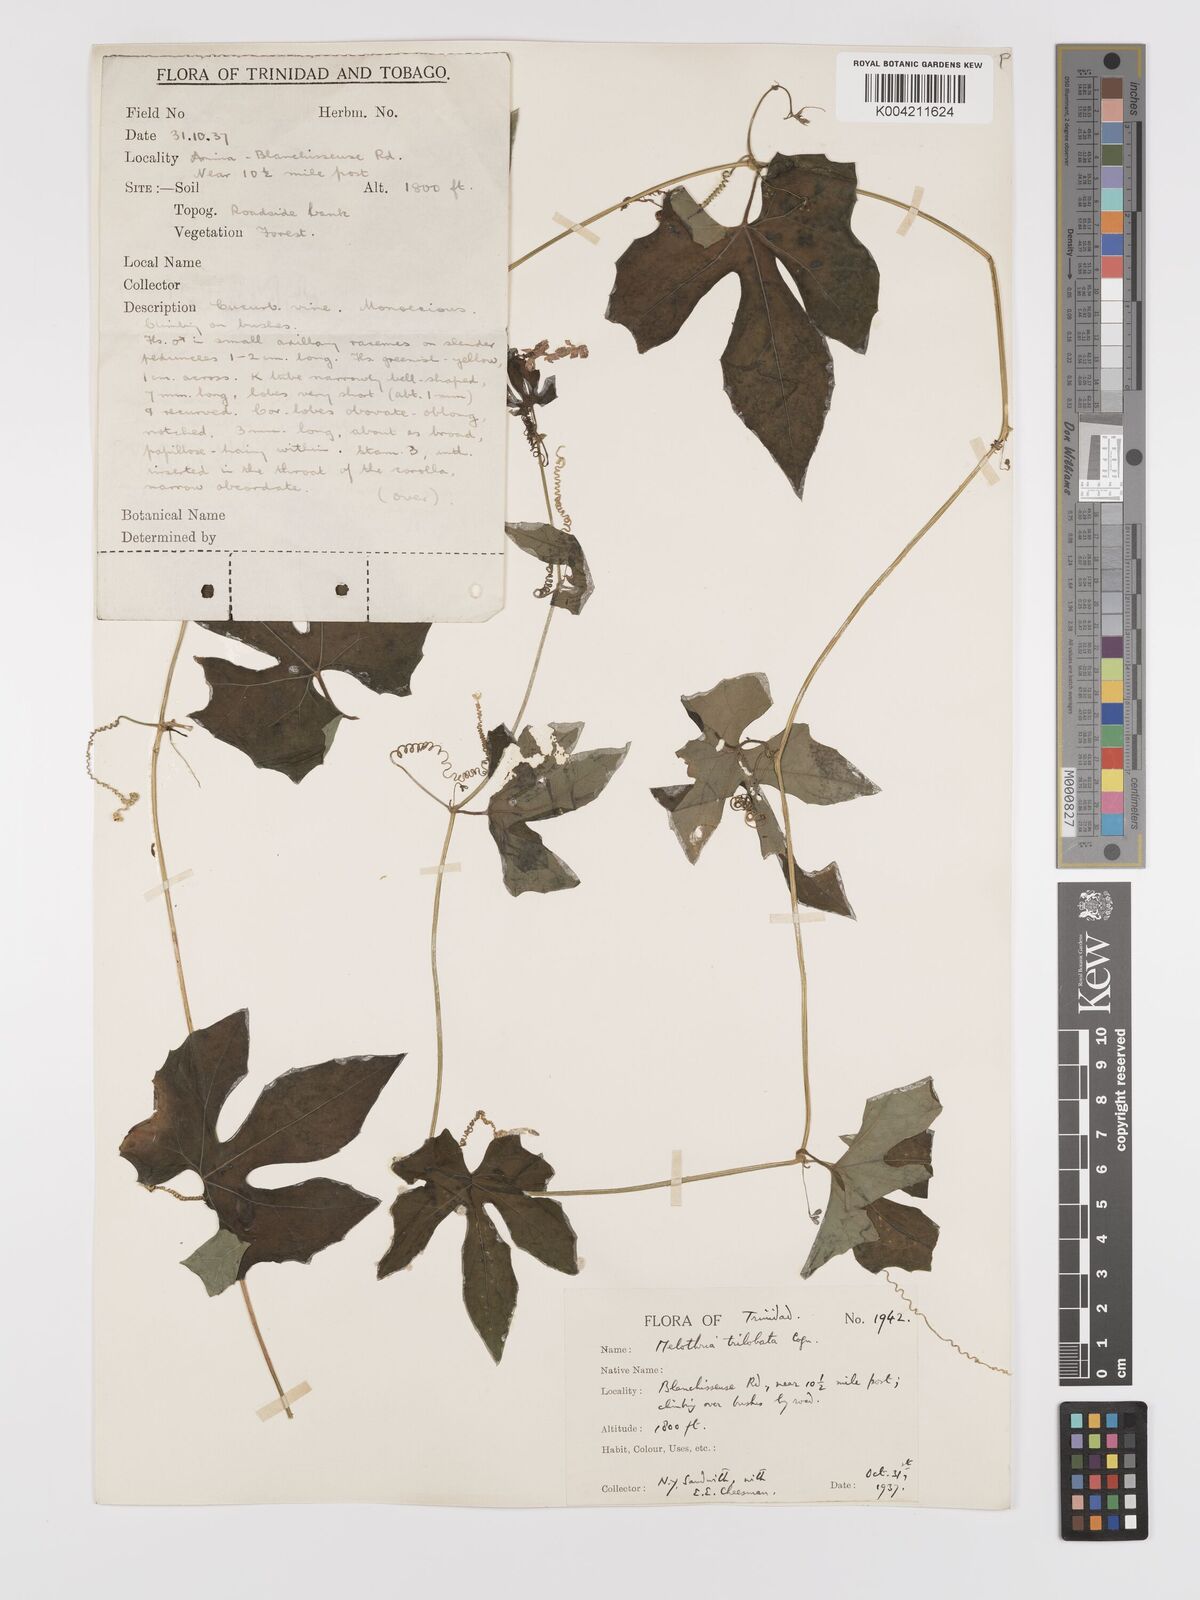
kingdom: Plantae
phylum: Tracheophyta
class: Magnoliopsida
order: Cucurbitales
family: Cucurbitaceae
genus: Melothria
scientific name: Melothria trilobata
